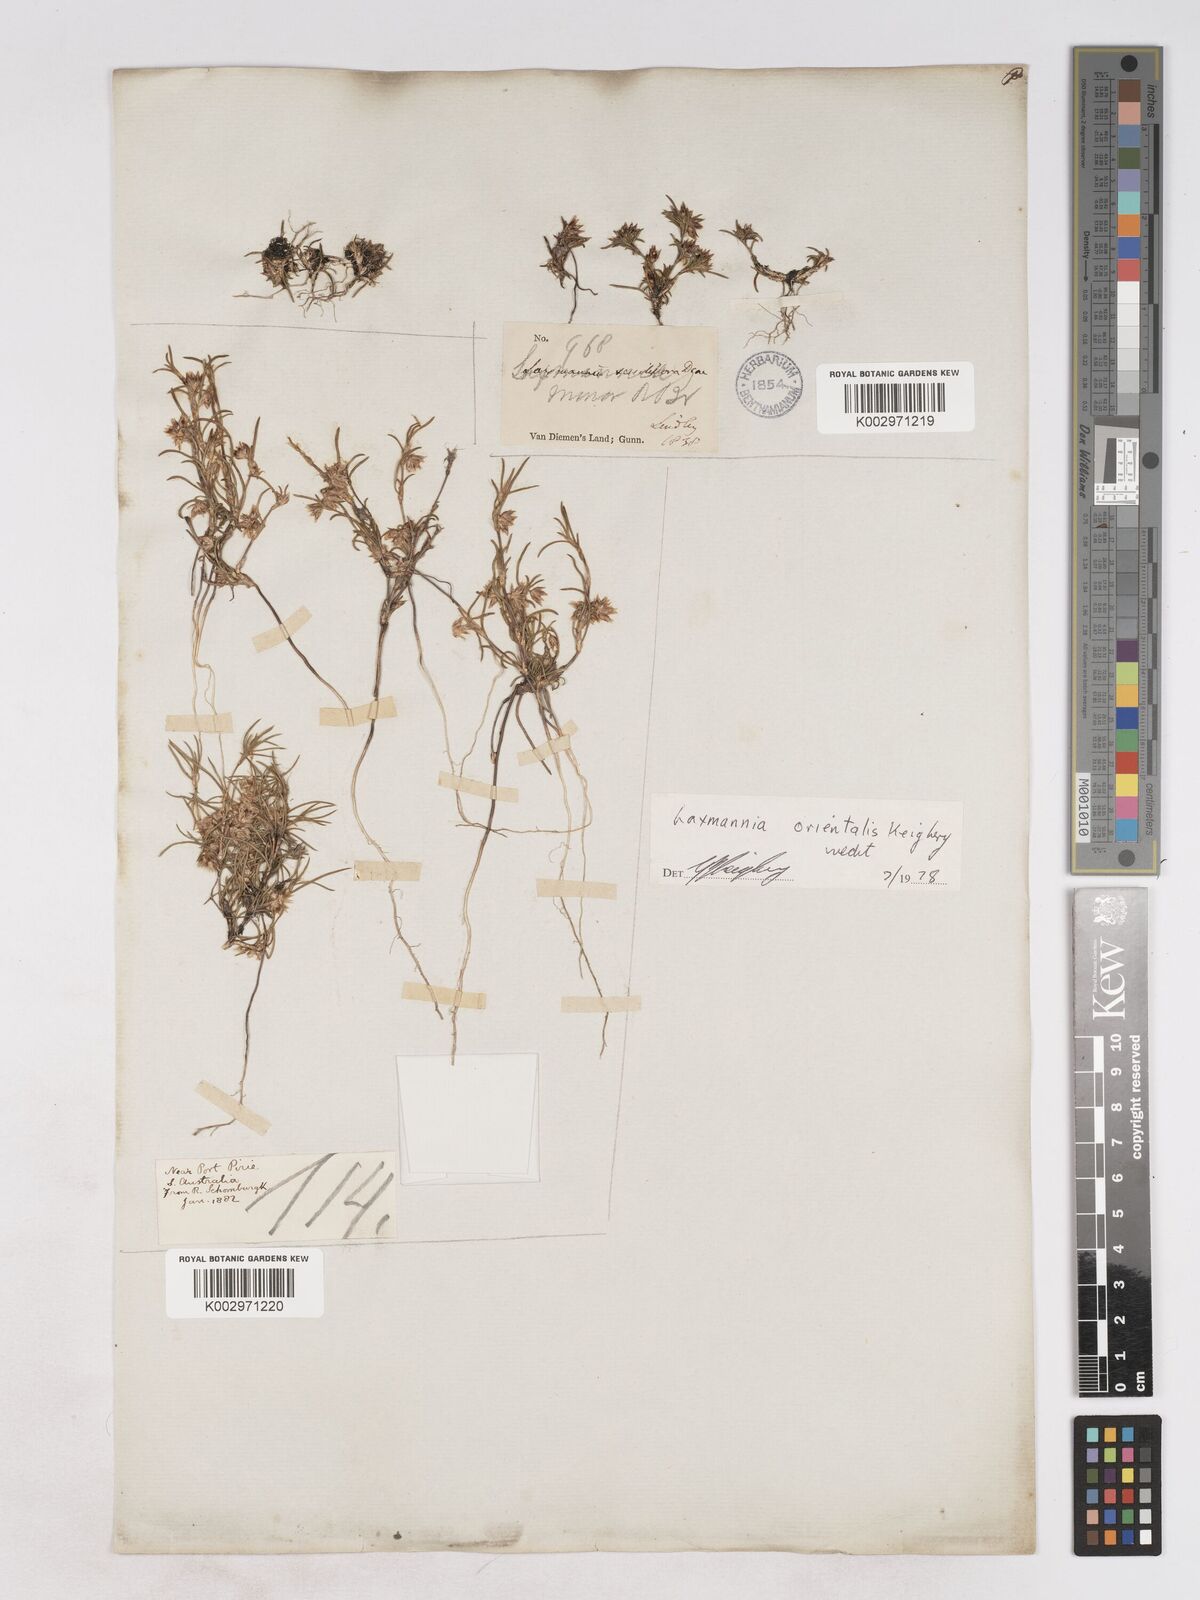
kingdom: Plantae
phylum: Tracheophyta
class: Liliopsida
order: Asparagales
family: Asparagaceae
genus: Laxmannia
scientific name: Laxmannia orientalis
